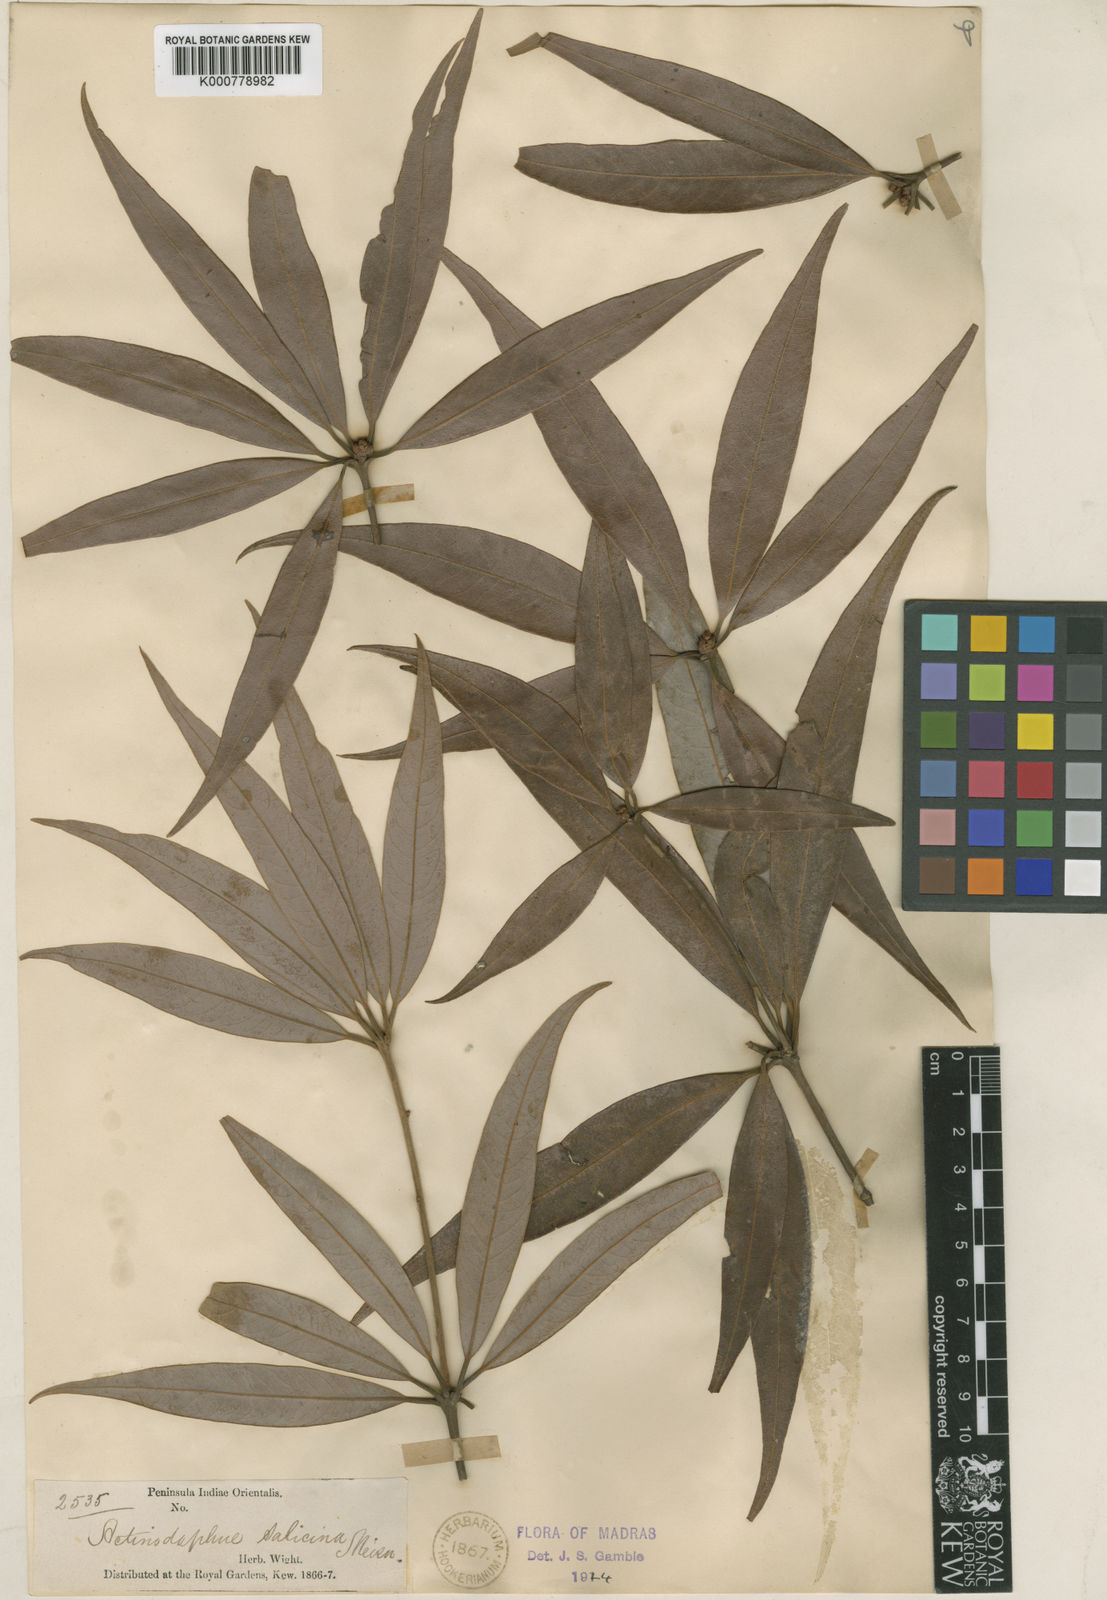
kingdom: Plantae
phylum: Tracheophyta
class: Magnoliopsida
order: Laurales
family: Lauraceae
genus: Actinodaphne
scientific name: Actinodaphne salicina
